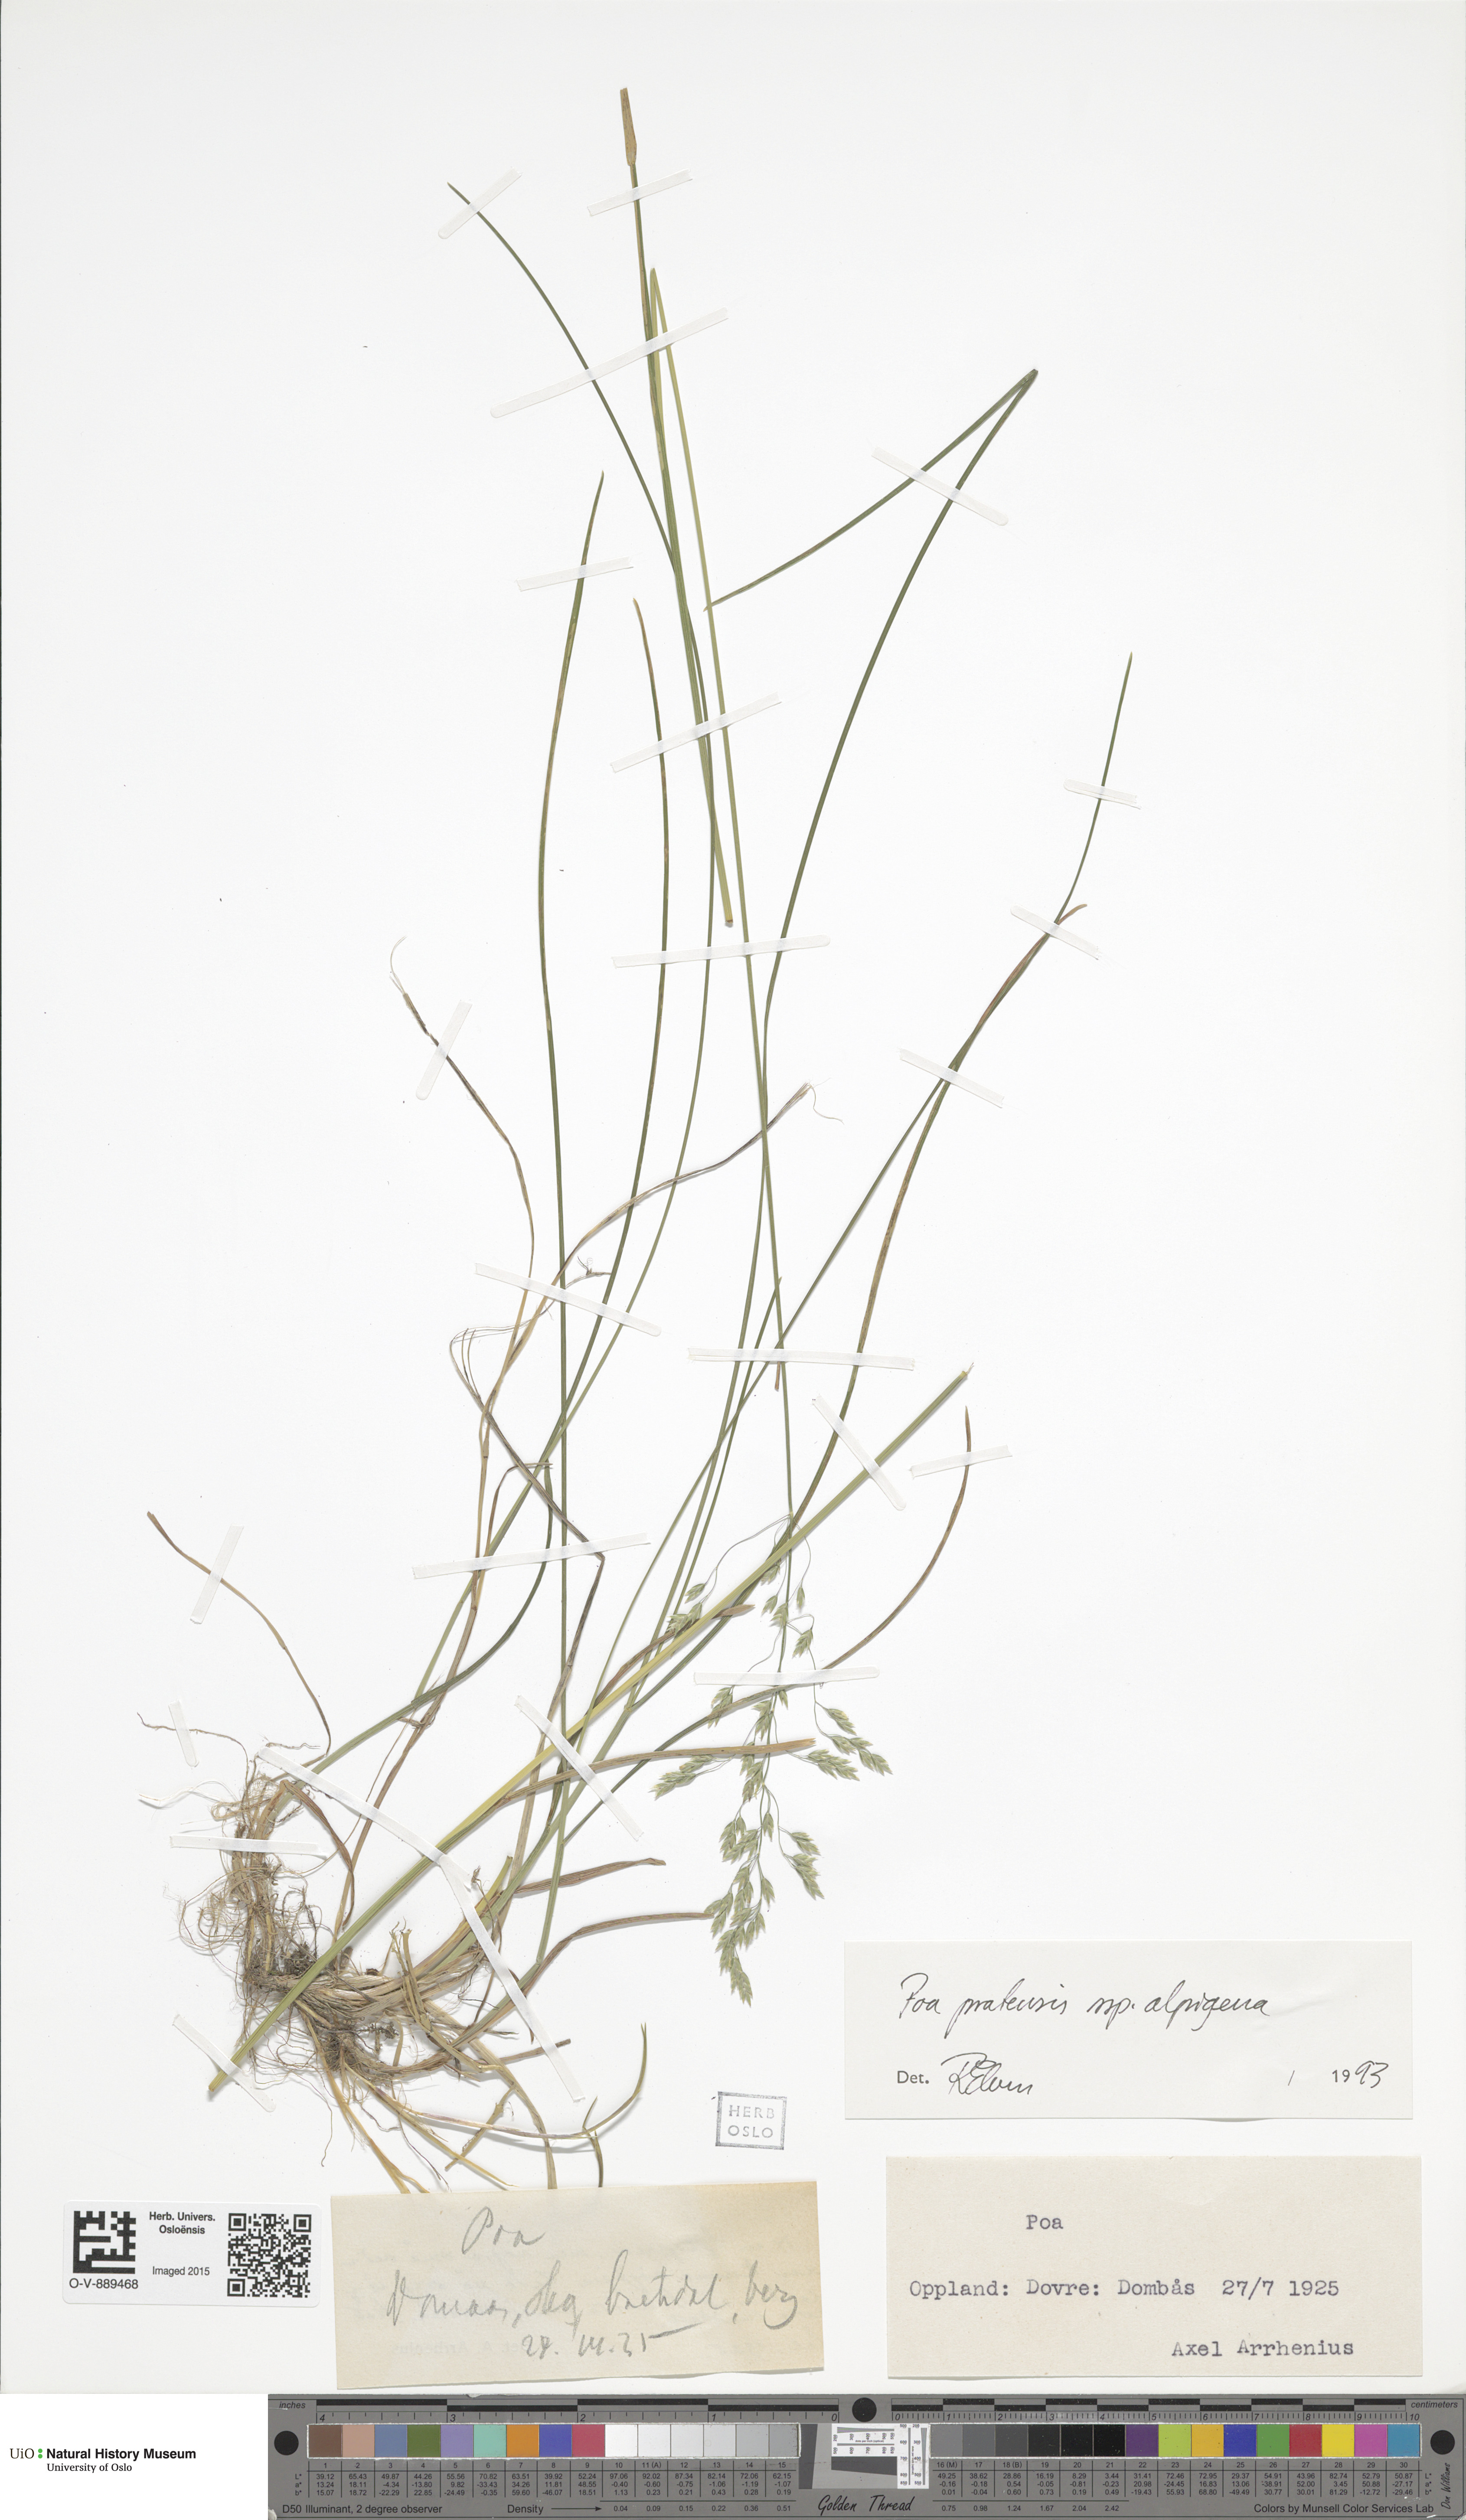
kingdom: Plantae
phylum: Tracheophyta
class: Liliopsida
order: Poales
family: Poaceae
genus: Poa
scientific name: Poa alpigena
